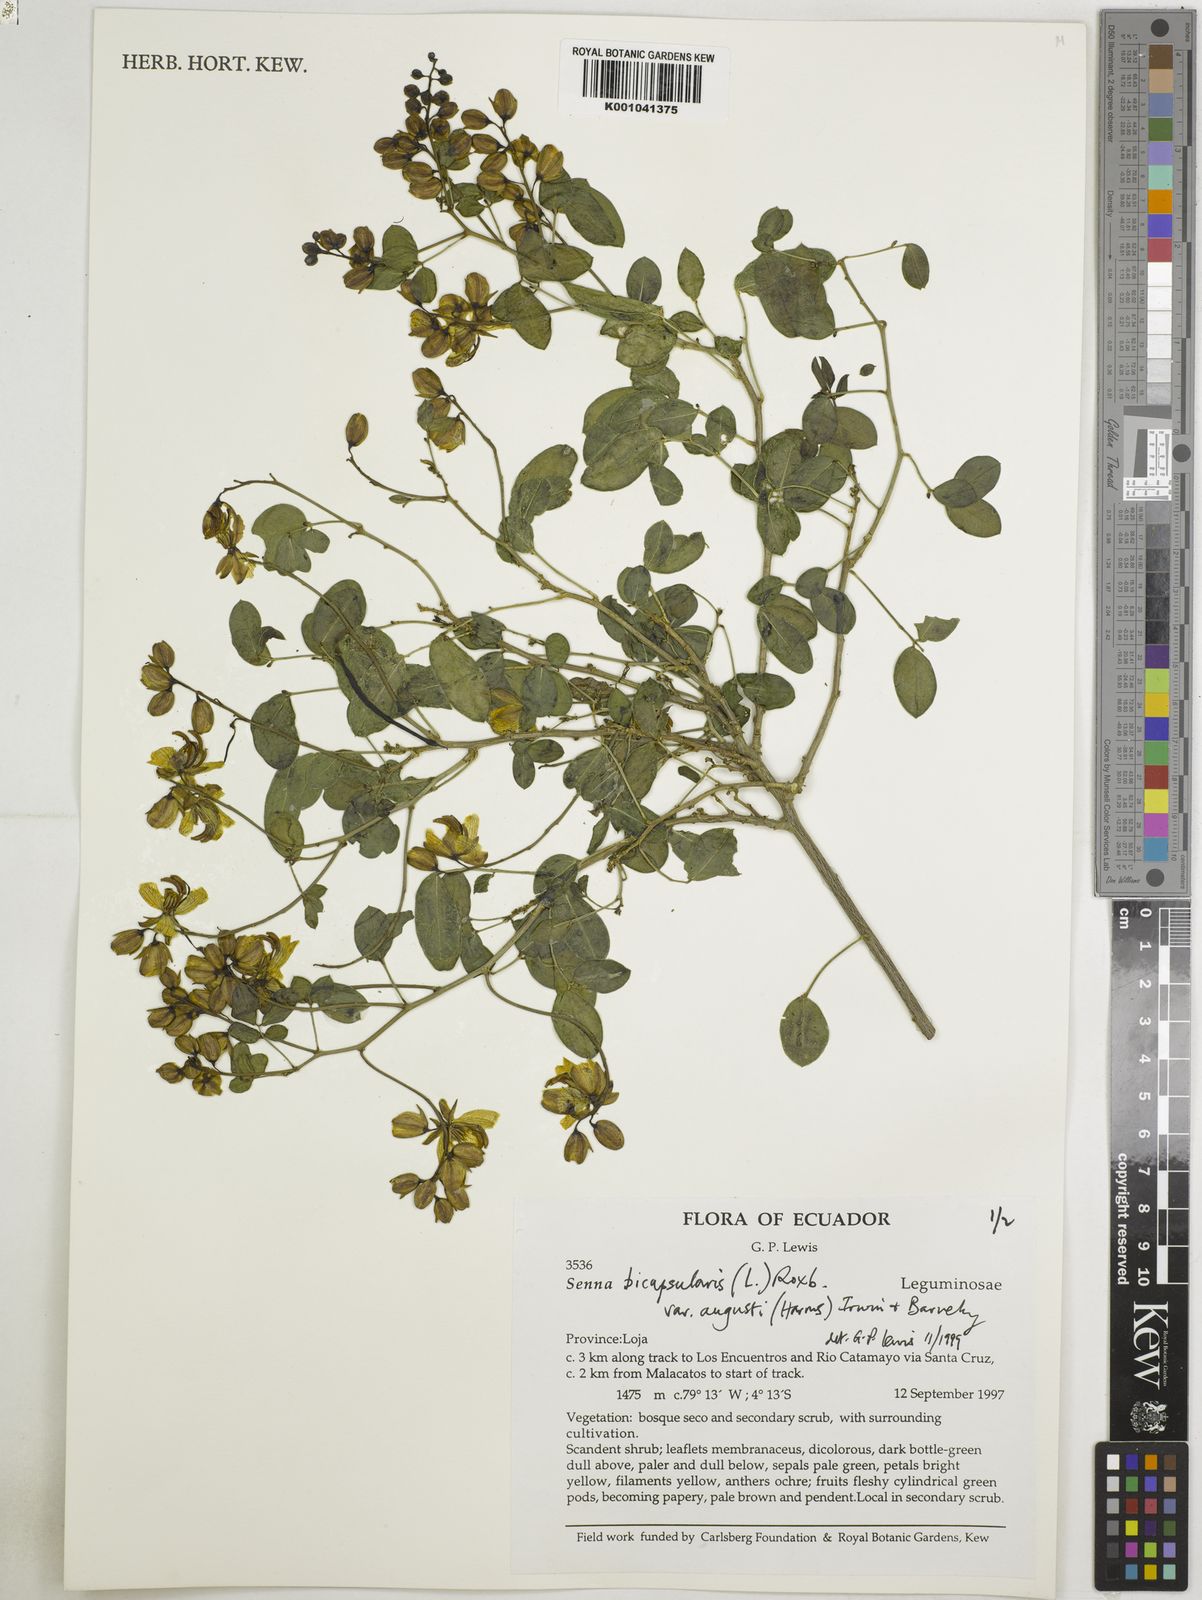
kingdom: Plantae
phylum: Tracheophyta
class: Magnoliopsida
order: Fabales
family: Fabaceae
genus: Senna
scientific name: Senna bicapsularis
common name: Christmasbush
